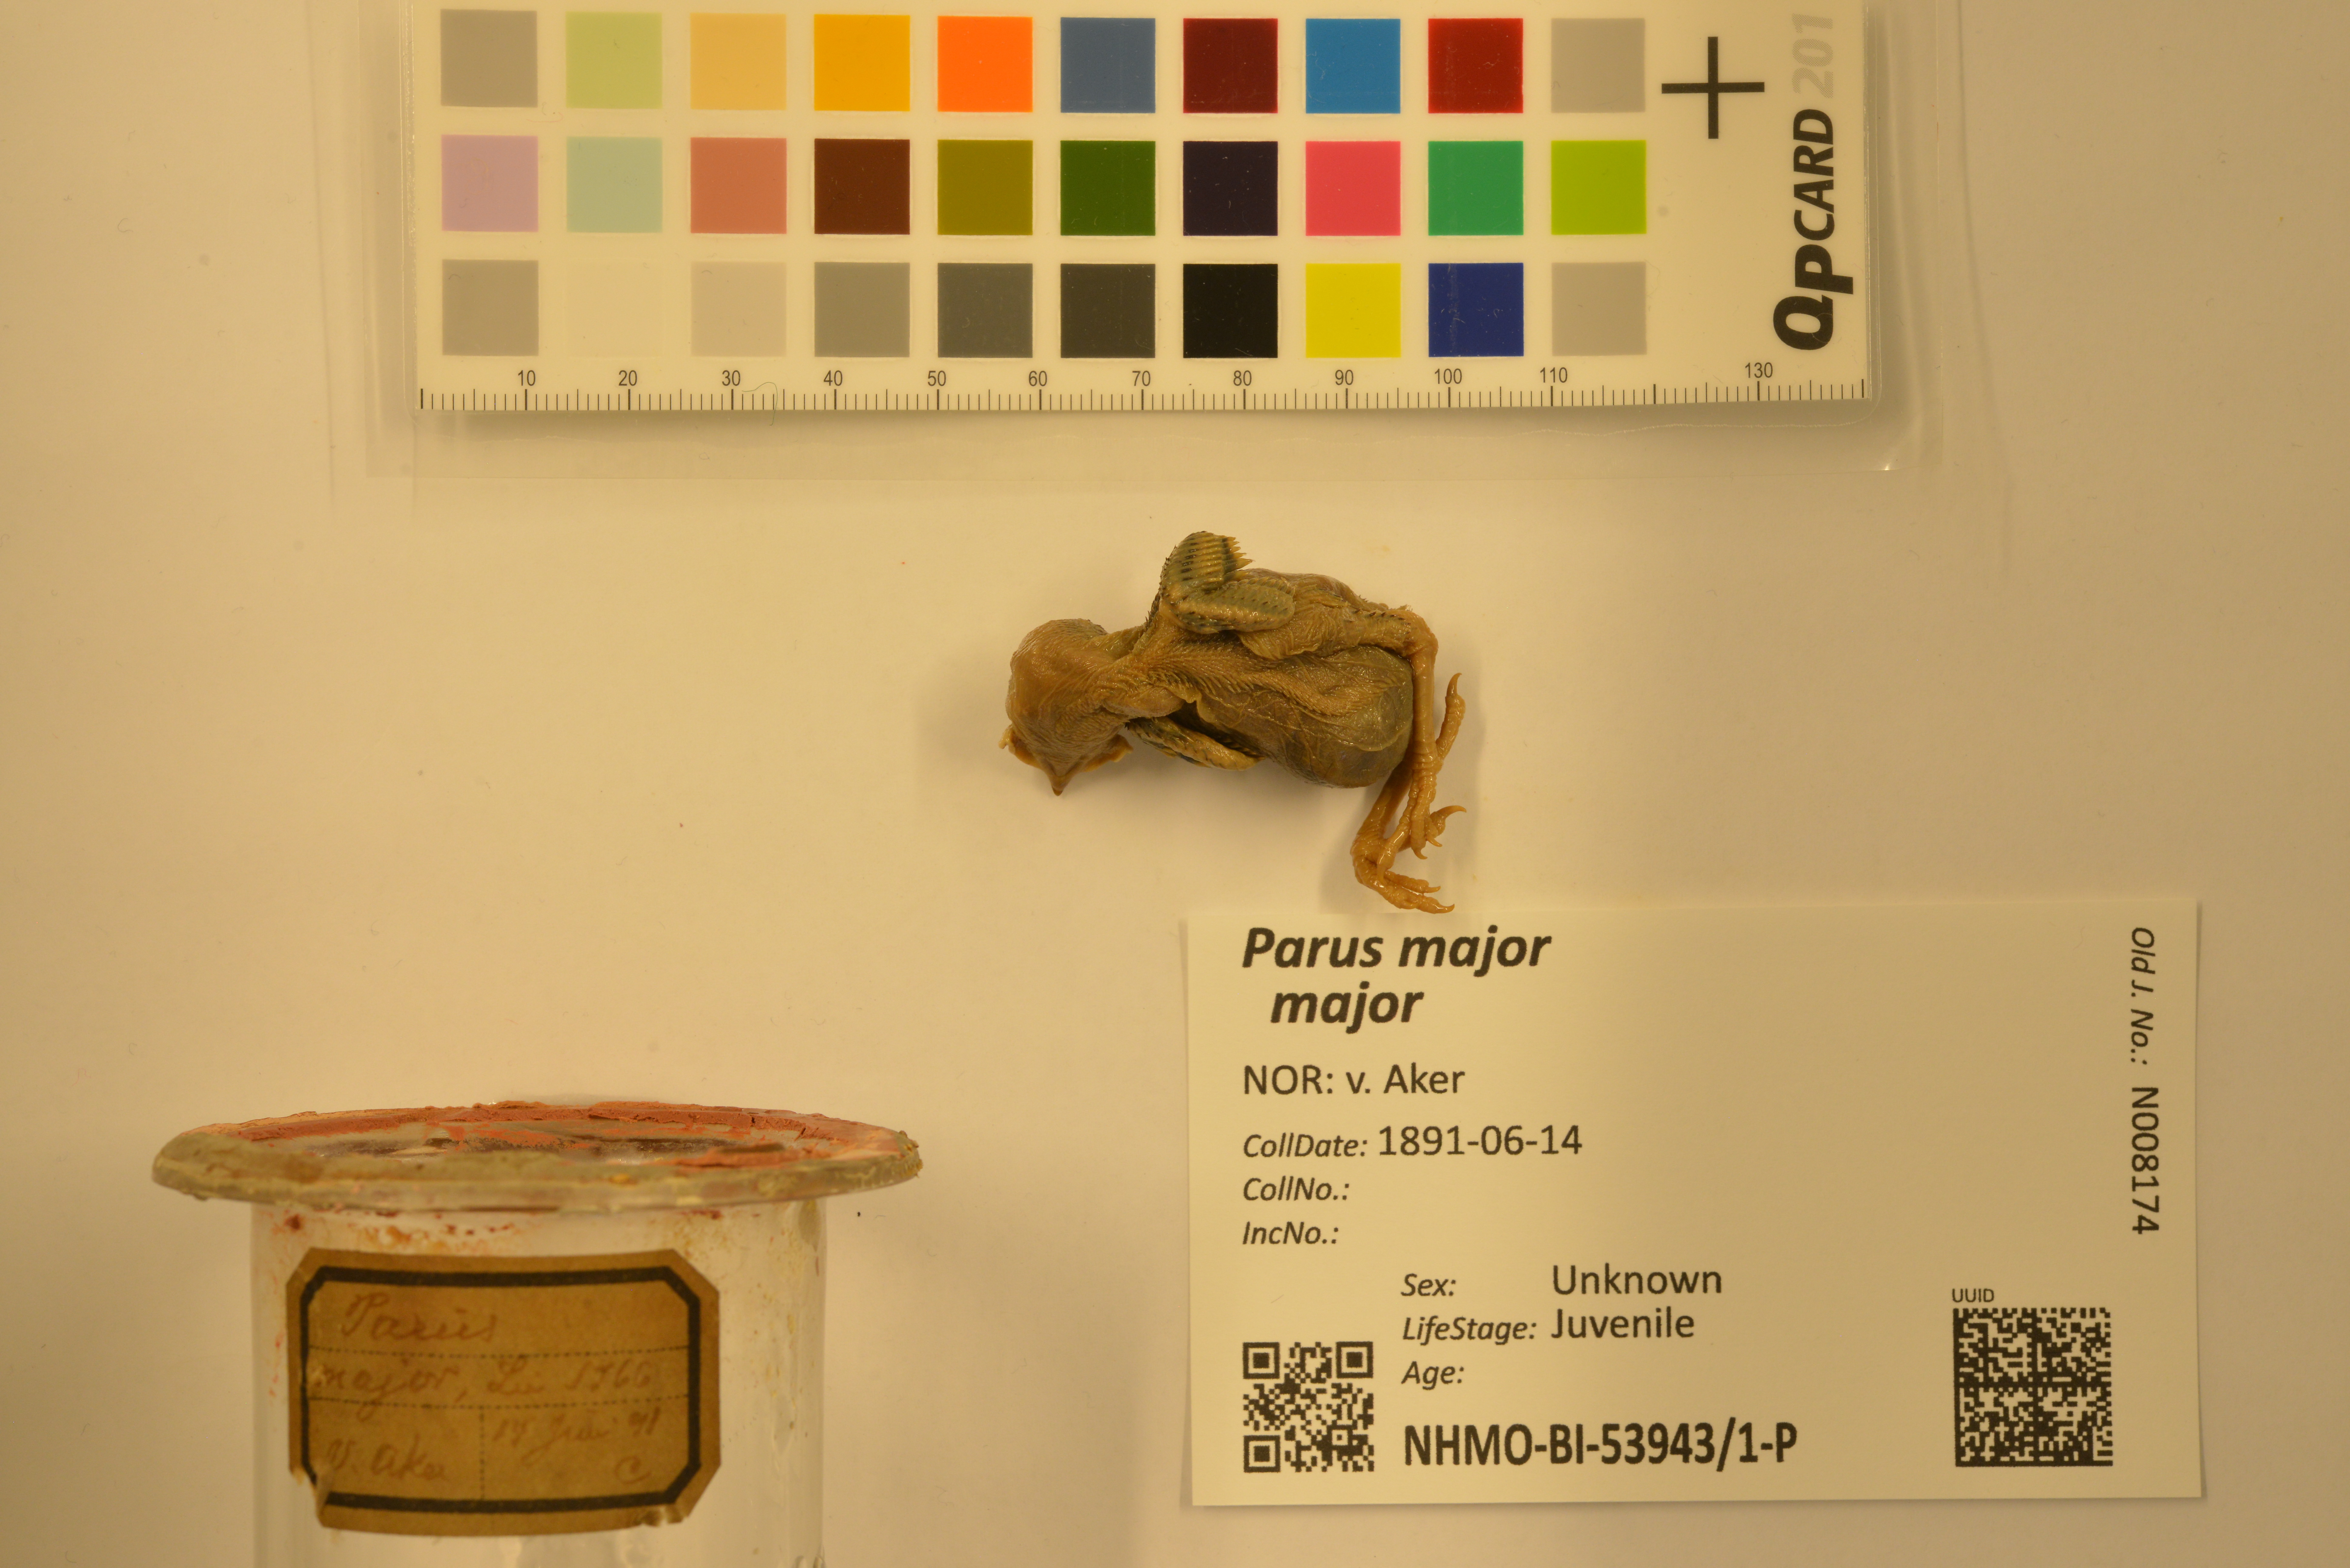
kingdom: Animalia
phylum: Chordata
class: Aves
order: Passeriformes
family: Paridae
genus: Parus
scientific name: Parus major
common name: Great tit
